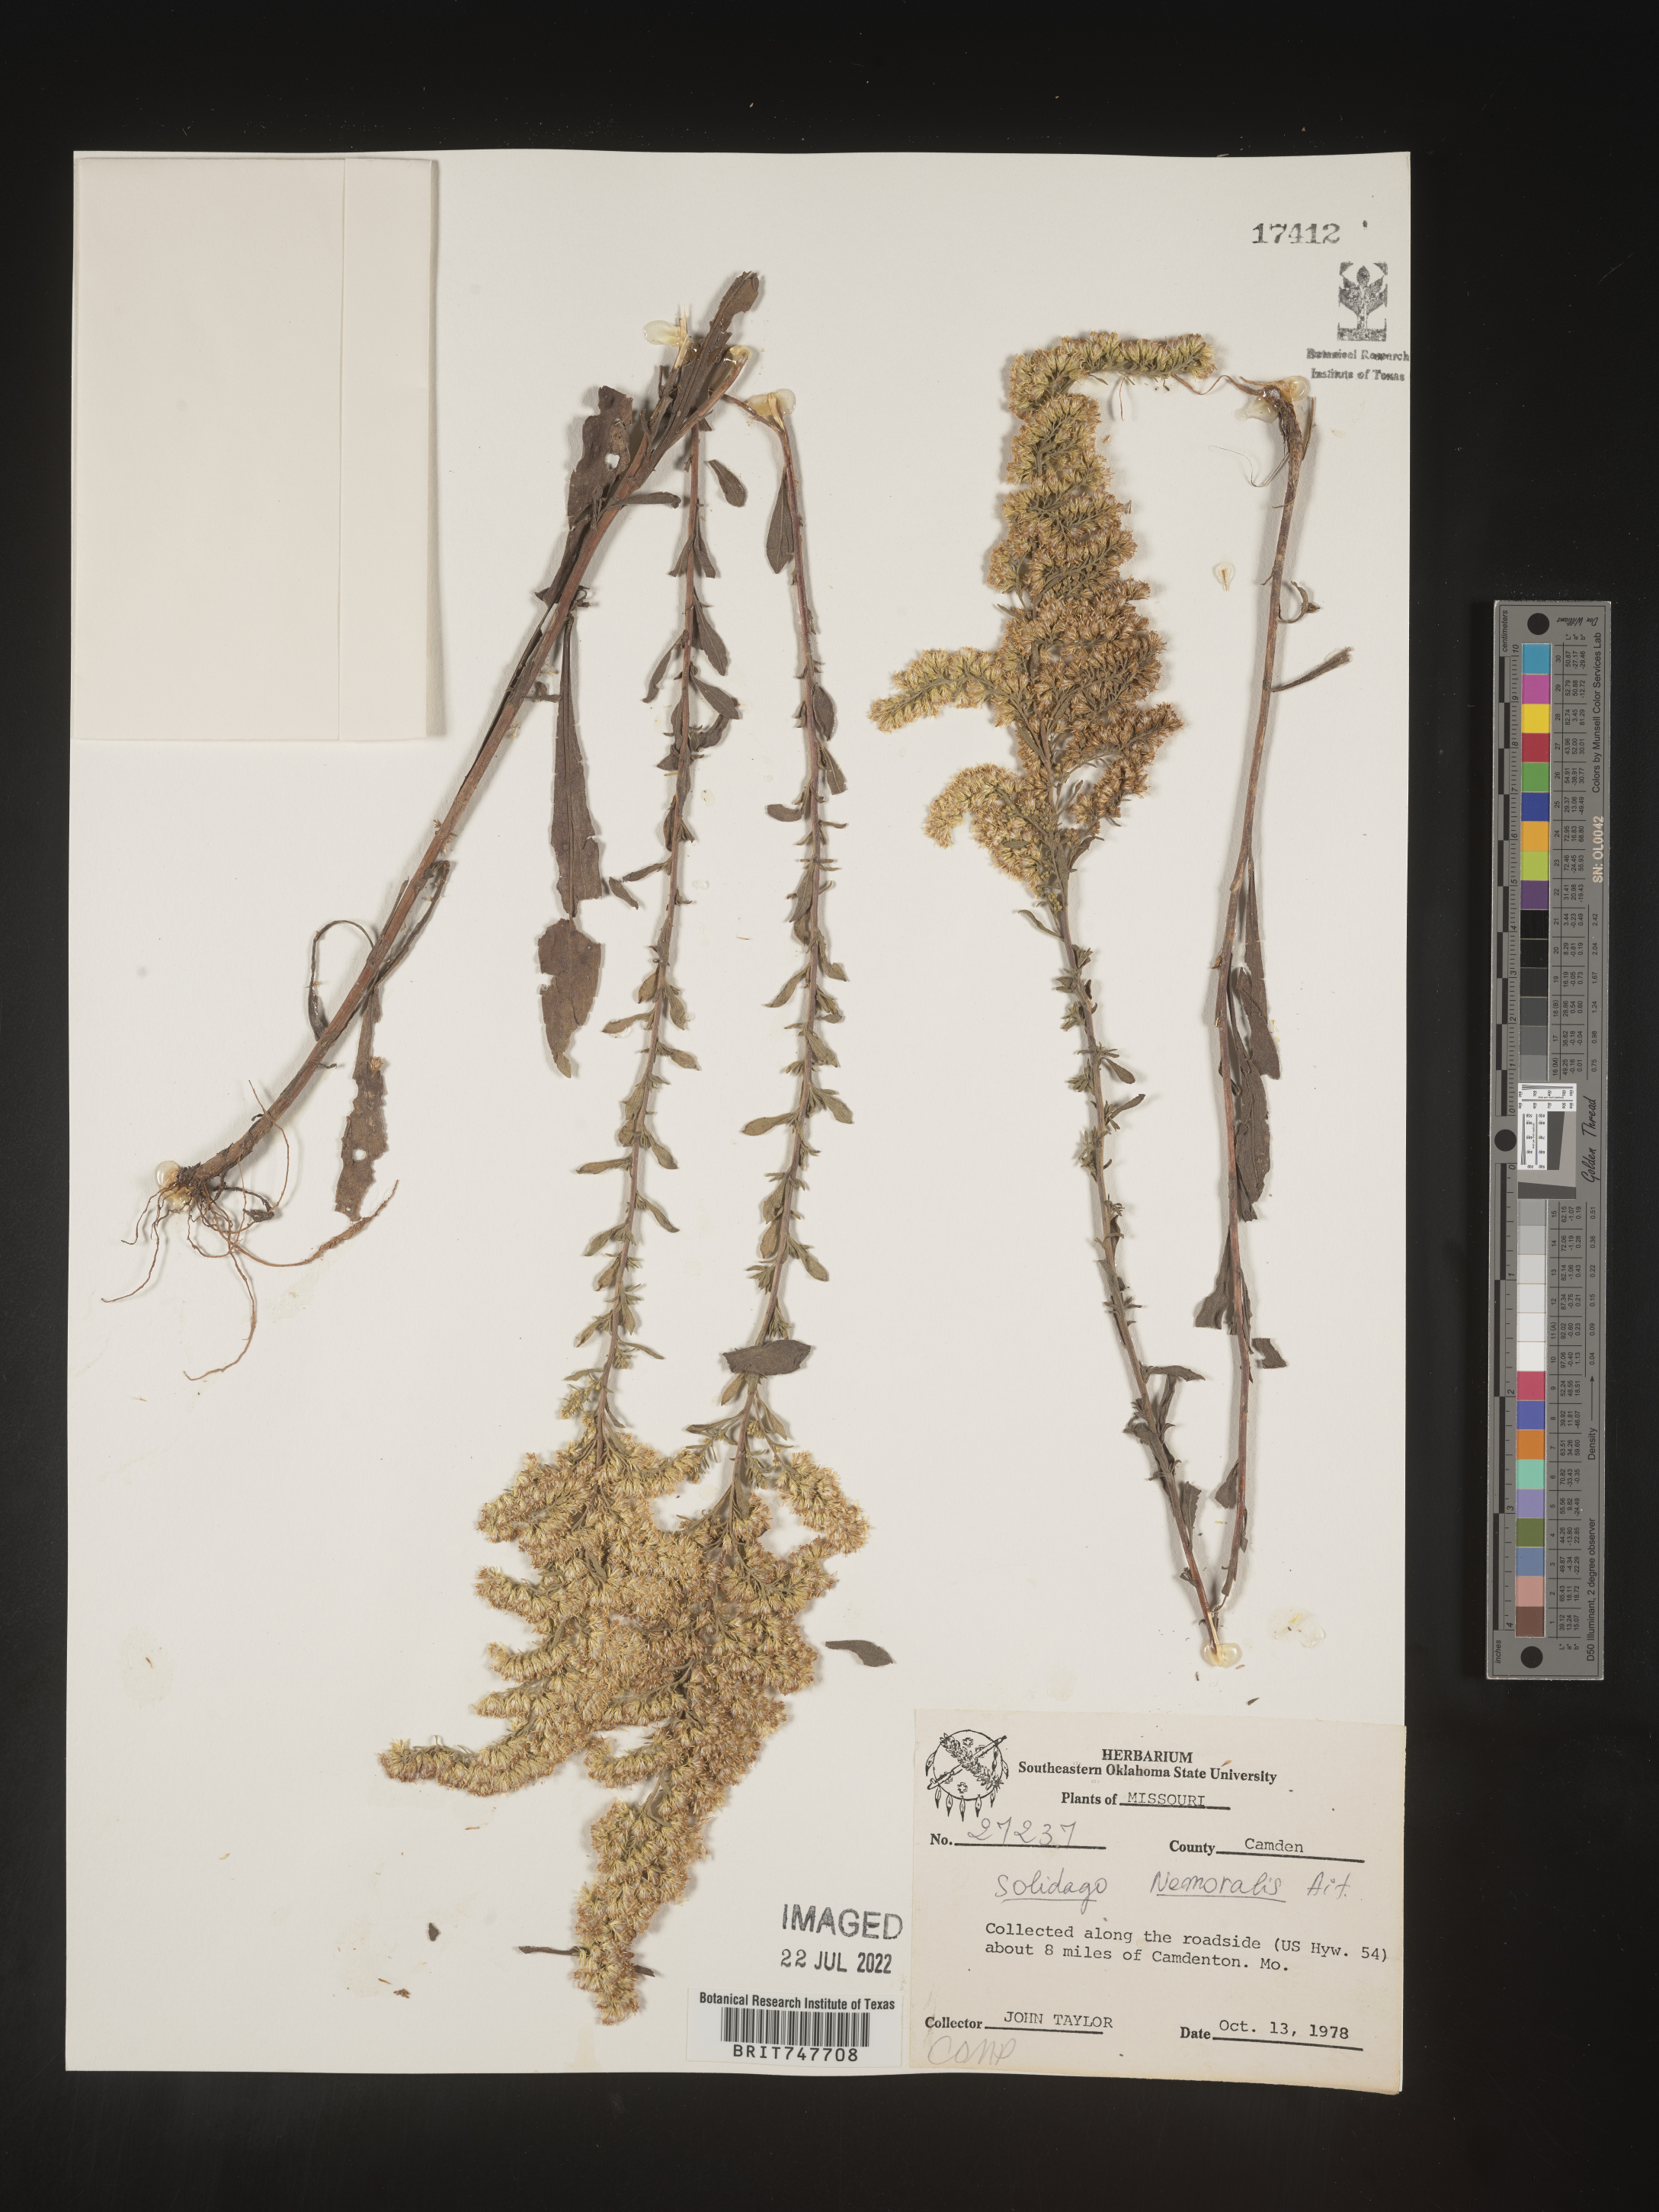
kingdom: Plantae
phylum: Tracheophyta
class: Magnoliopsida
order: Asterales
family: Asteraceae
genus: Solidago
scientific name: Solidago nemoralis
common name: Grey goldenrod
